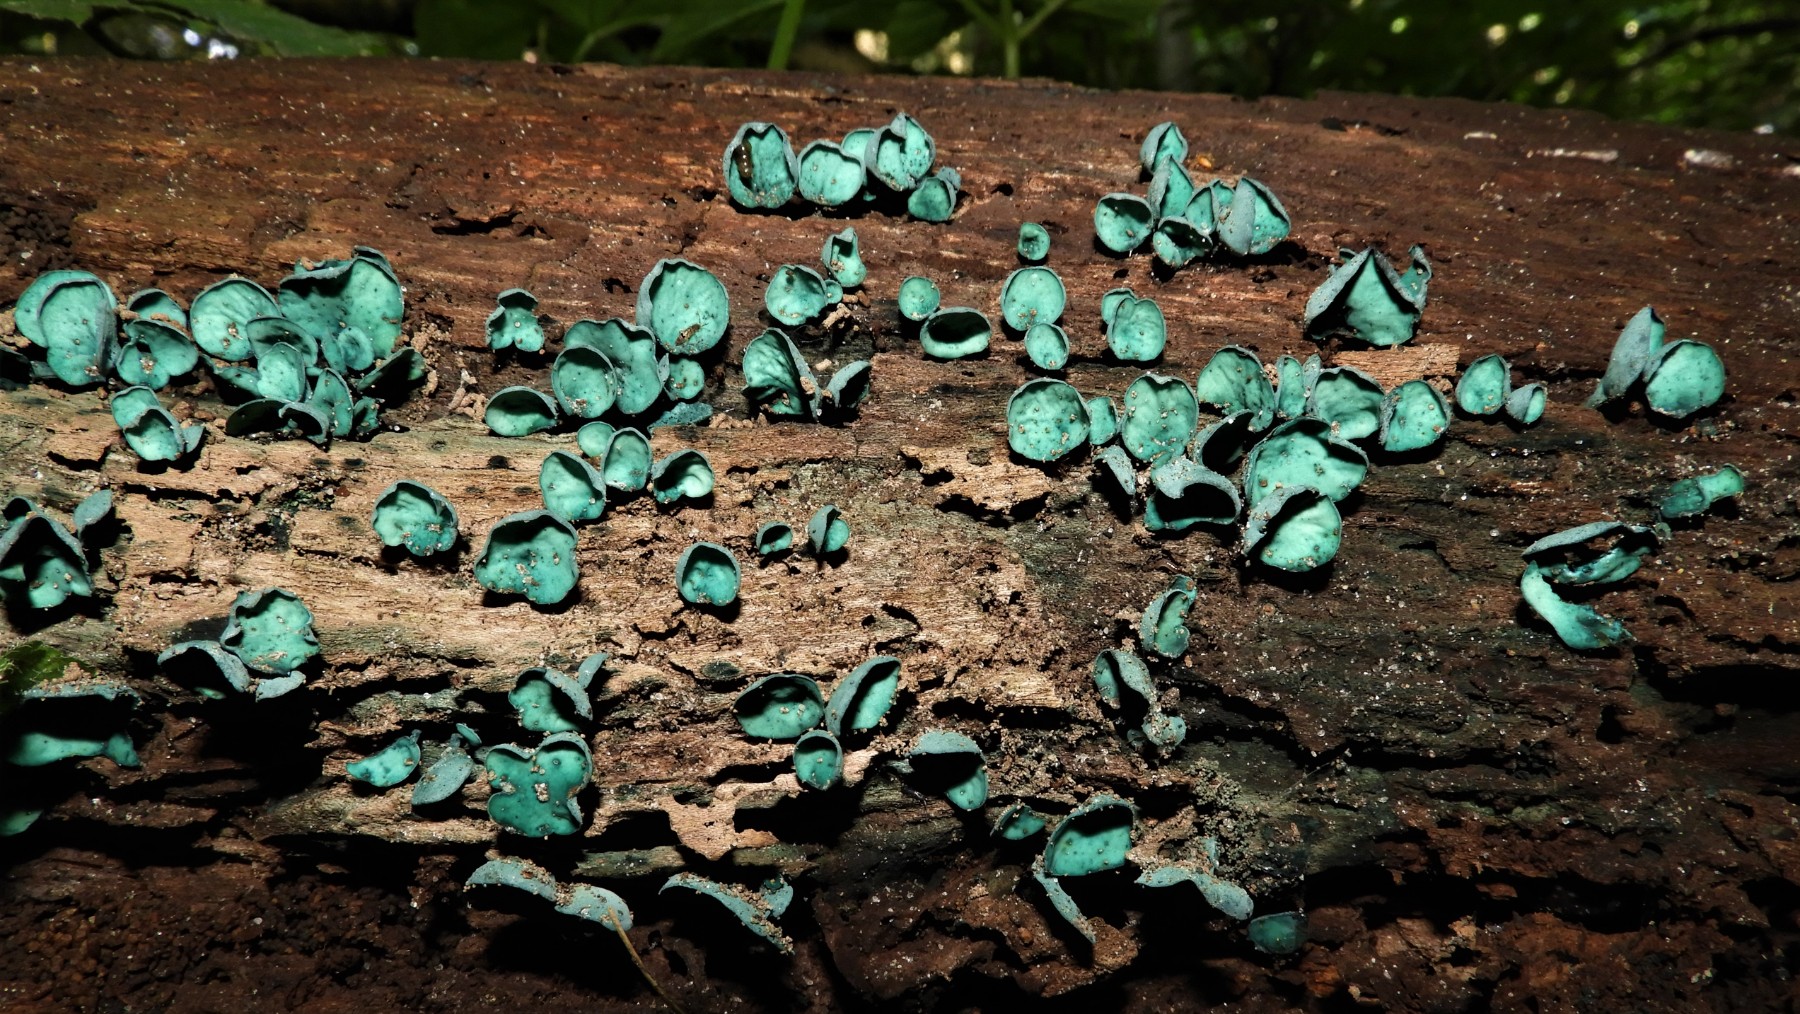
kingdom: Fungi
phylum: Ascomycota
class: Leotiomycetes
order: Helotiales
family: Chlorociboriaceae
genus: Chlorociboria
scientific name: Chlorociboria aeruginascens
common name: almindelig grønskive
